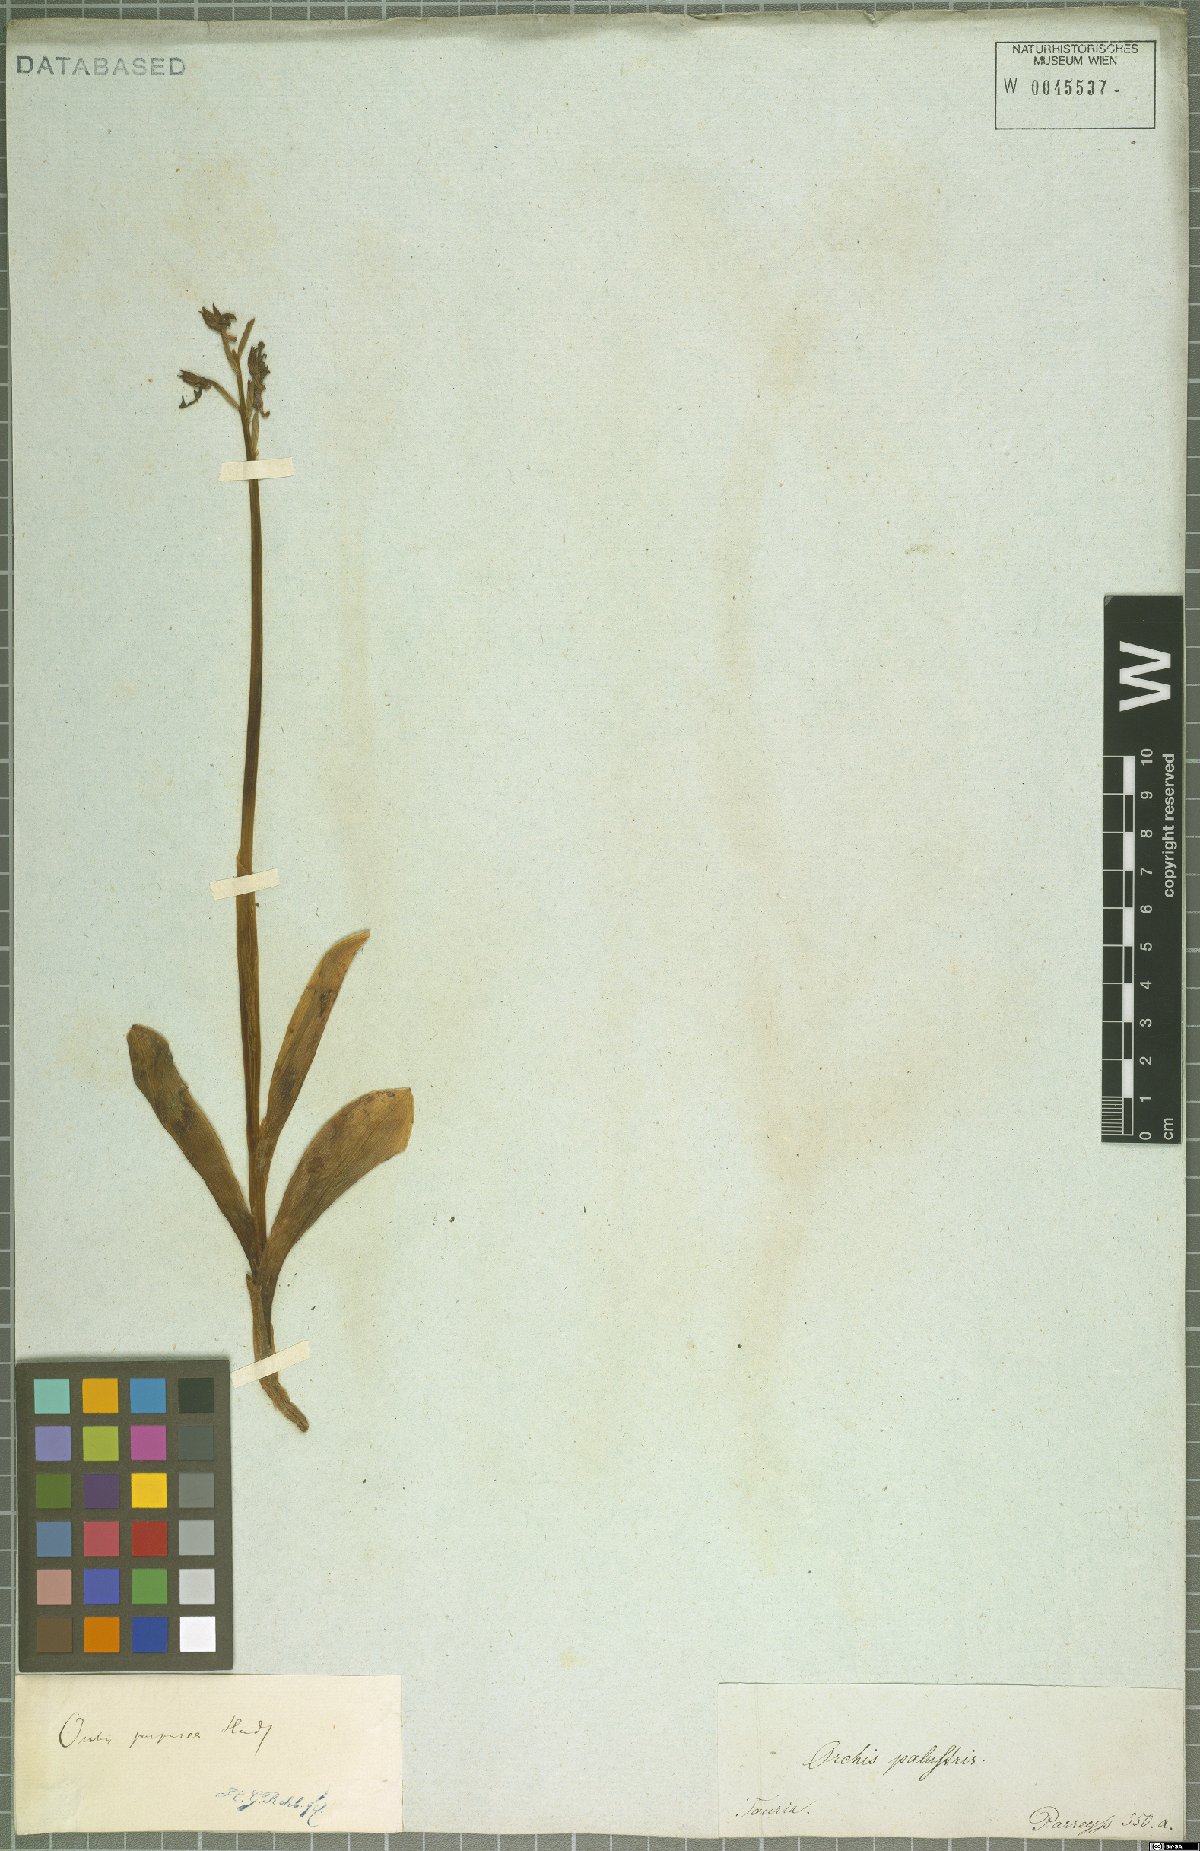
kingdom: Plantae
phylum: Tracheophyta
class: Liliopsida
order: Asparagales
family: Orchidaceae
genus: Orchis
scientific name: Orchis purpurea
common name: Lady orchid
